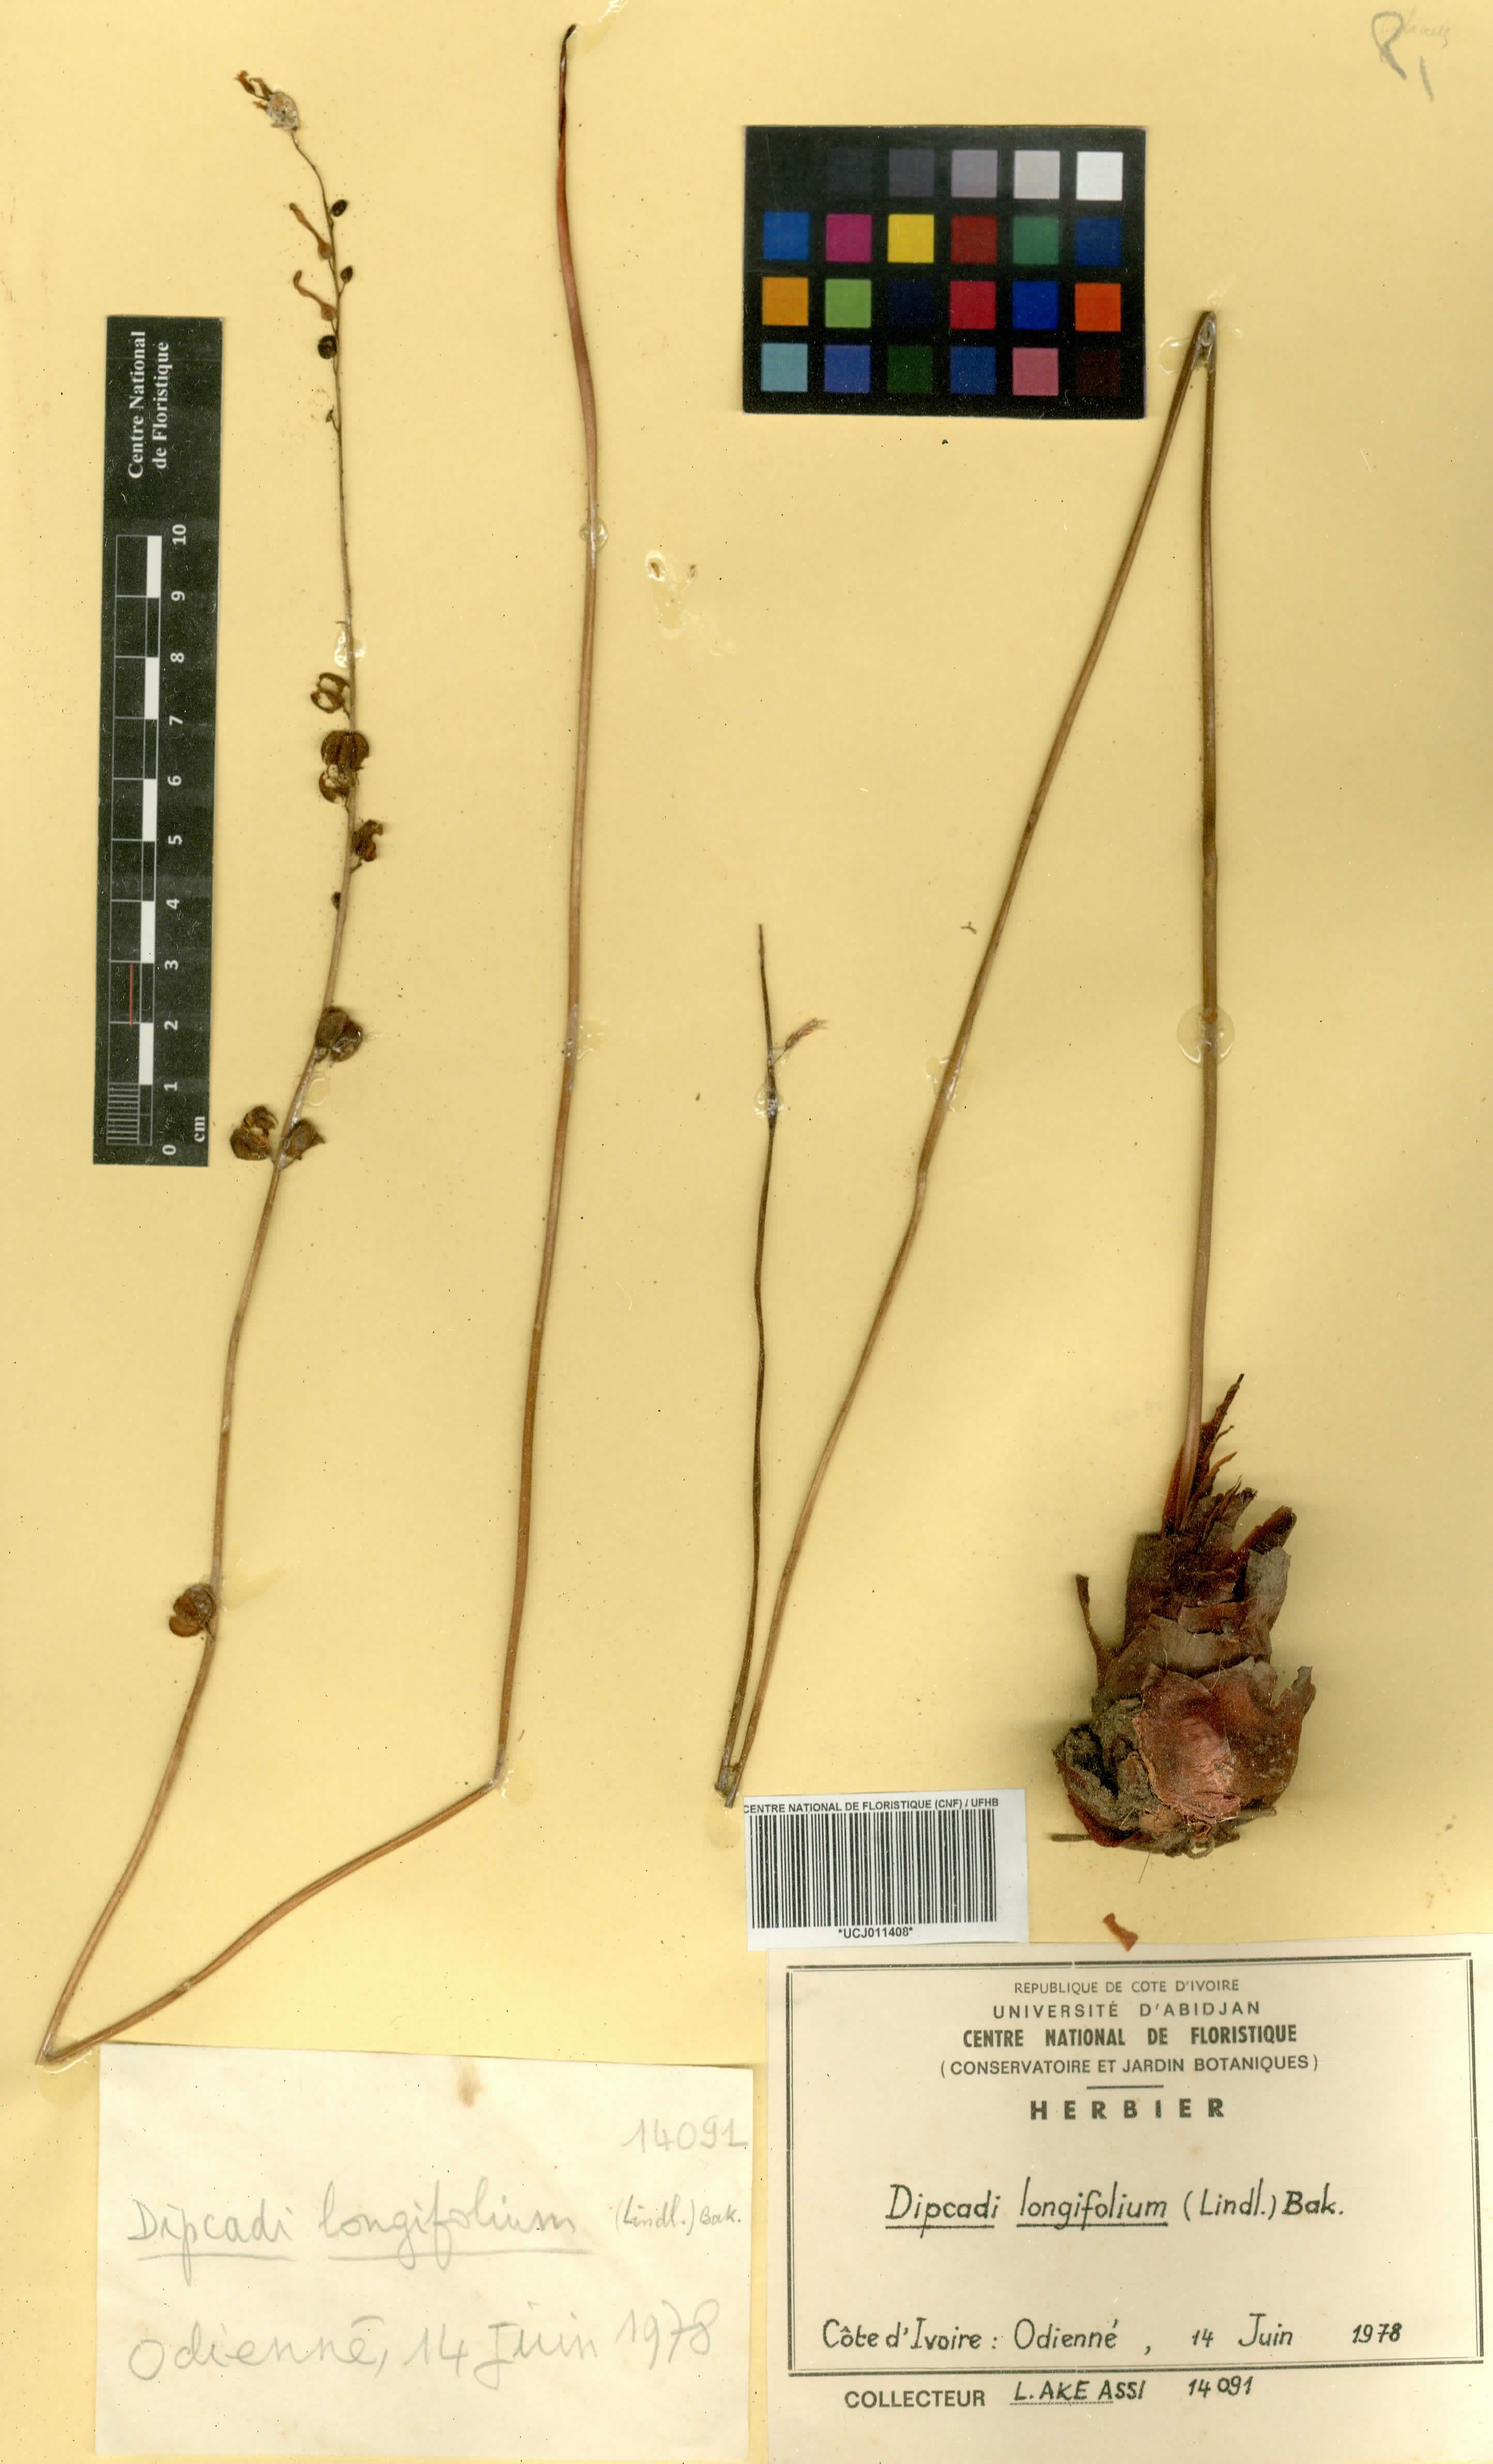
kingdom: Plantae
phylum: Tracheophyta
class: Liliopsida
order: Asparagales
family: Asparagaceae
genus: Dipcadi
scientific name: Dipcadi longifolium
